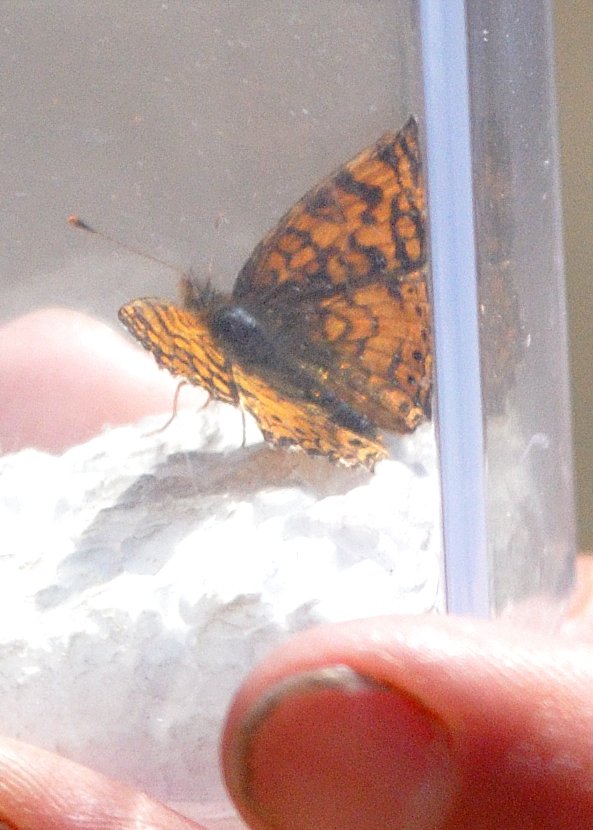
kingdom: Animalia
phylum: Arthropoda
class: Insecta
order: Lepidoptera
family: Nymphalidae
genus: Eresia
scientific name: Eresia aveyrona
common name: Mylitta Crescent
